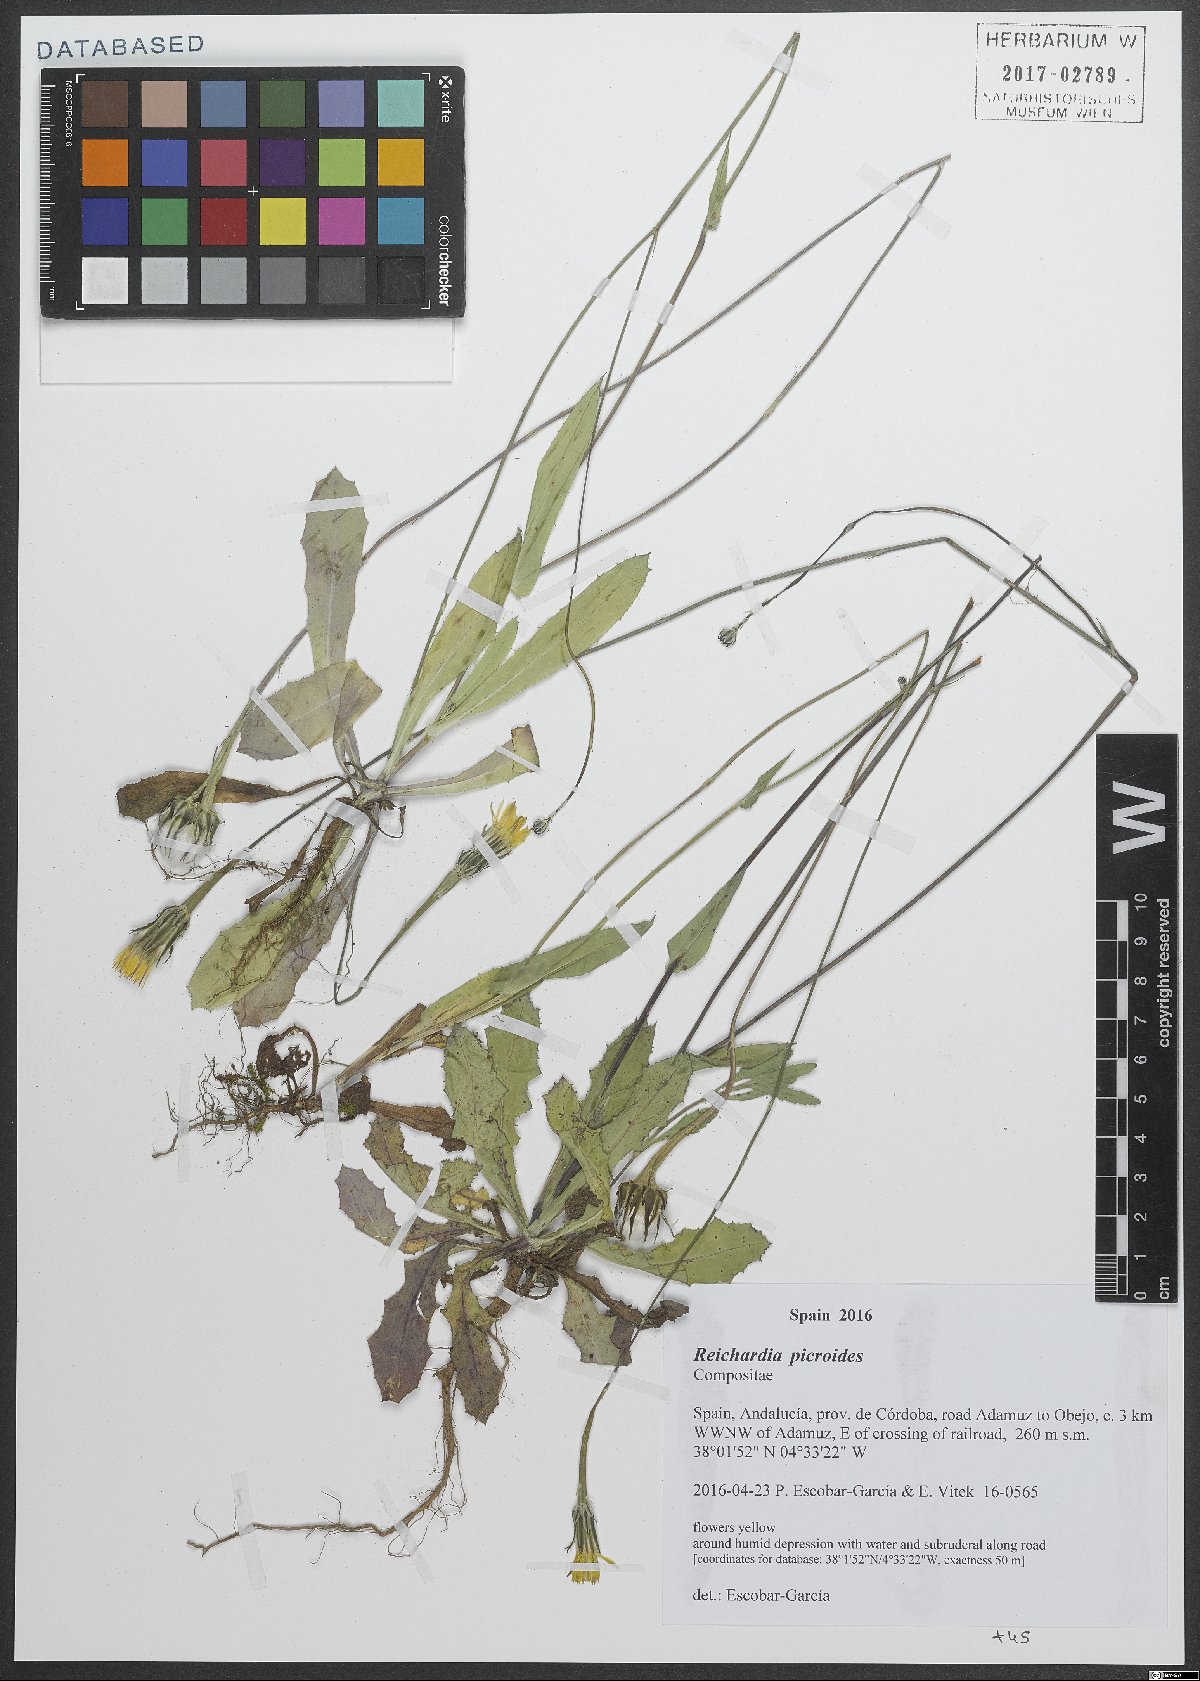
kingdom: Plantae
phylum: Tracheophyta
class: Magnoliopsida
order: Asterales
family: Asteraceae
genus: Reichardia
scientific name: Reichardia picroides
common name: Common brighteyes
